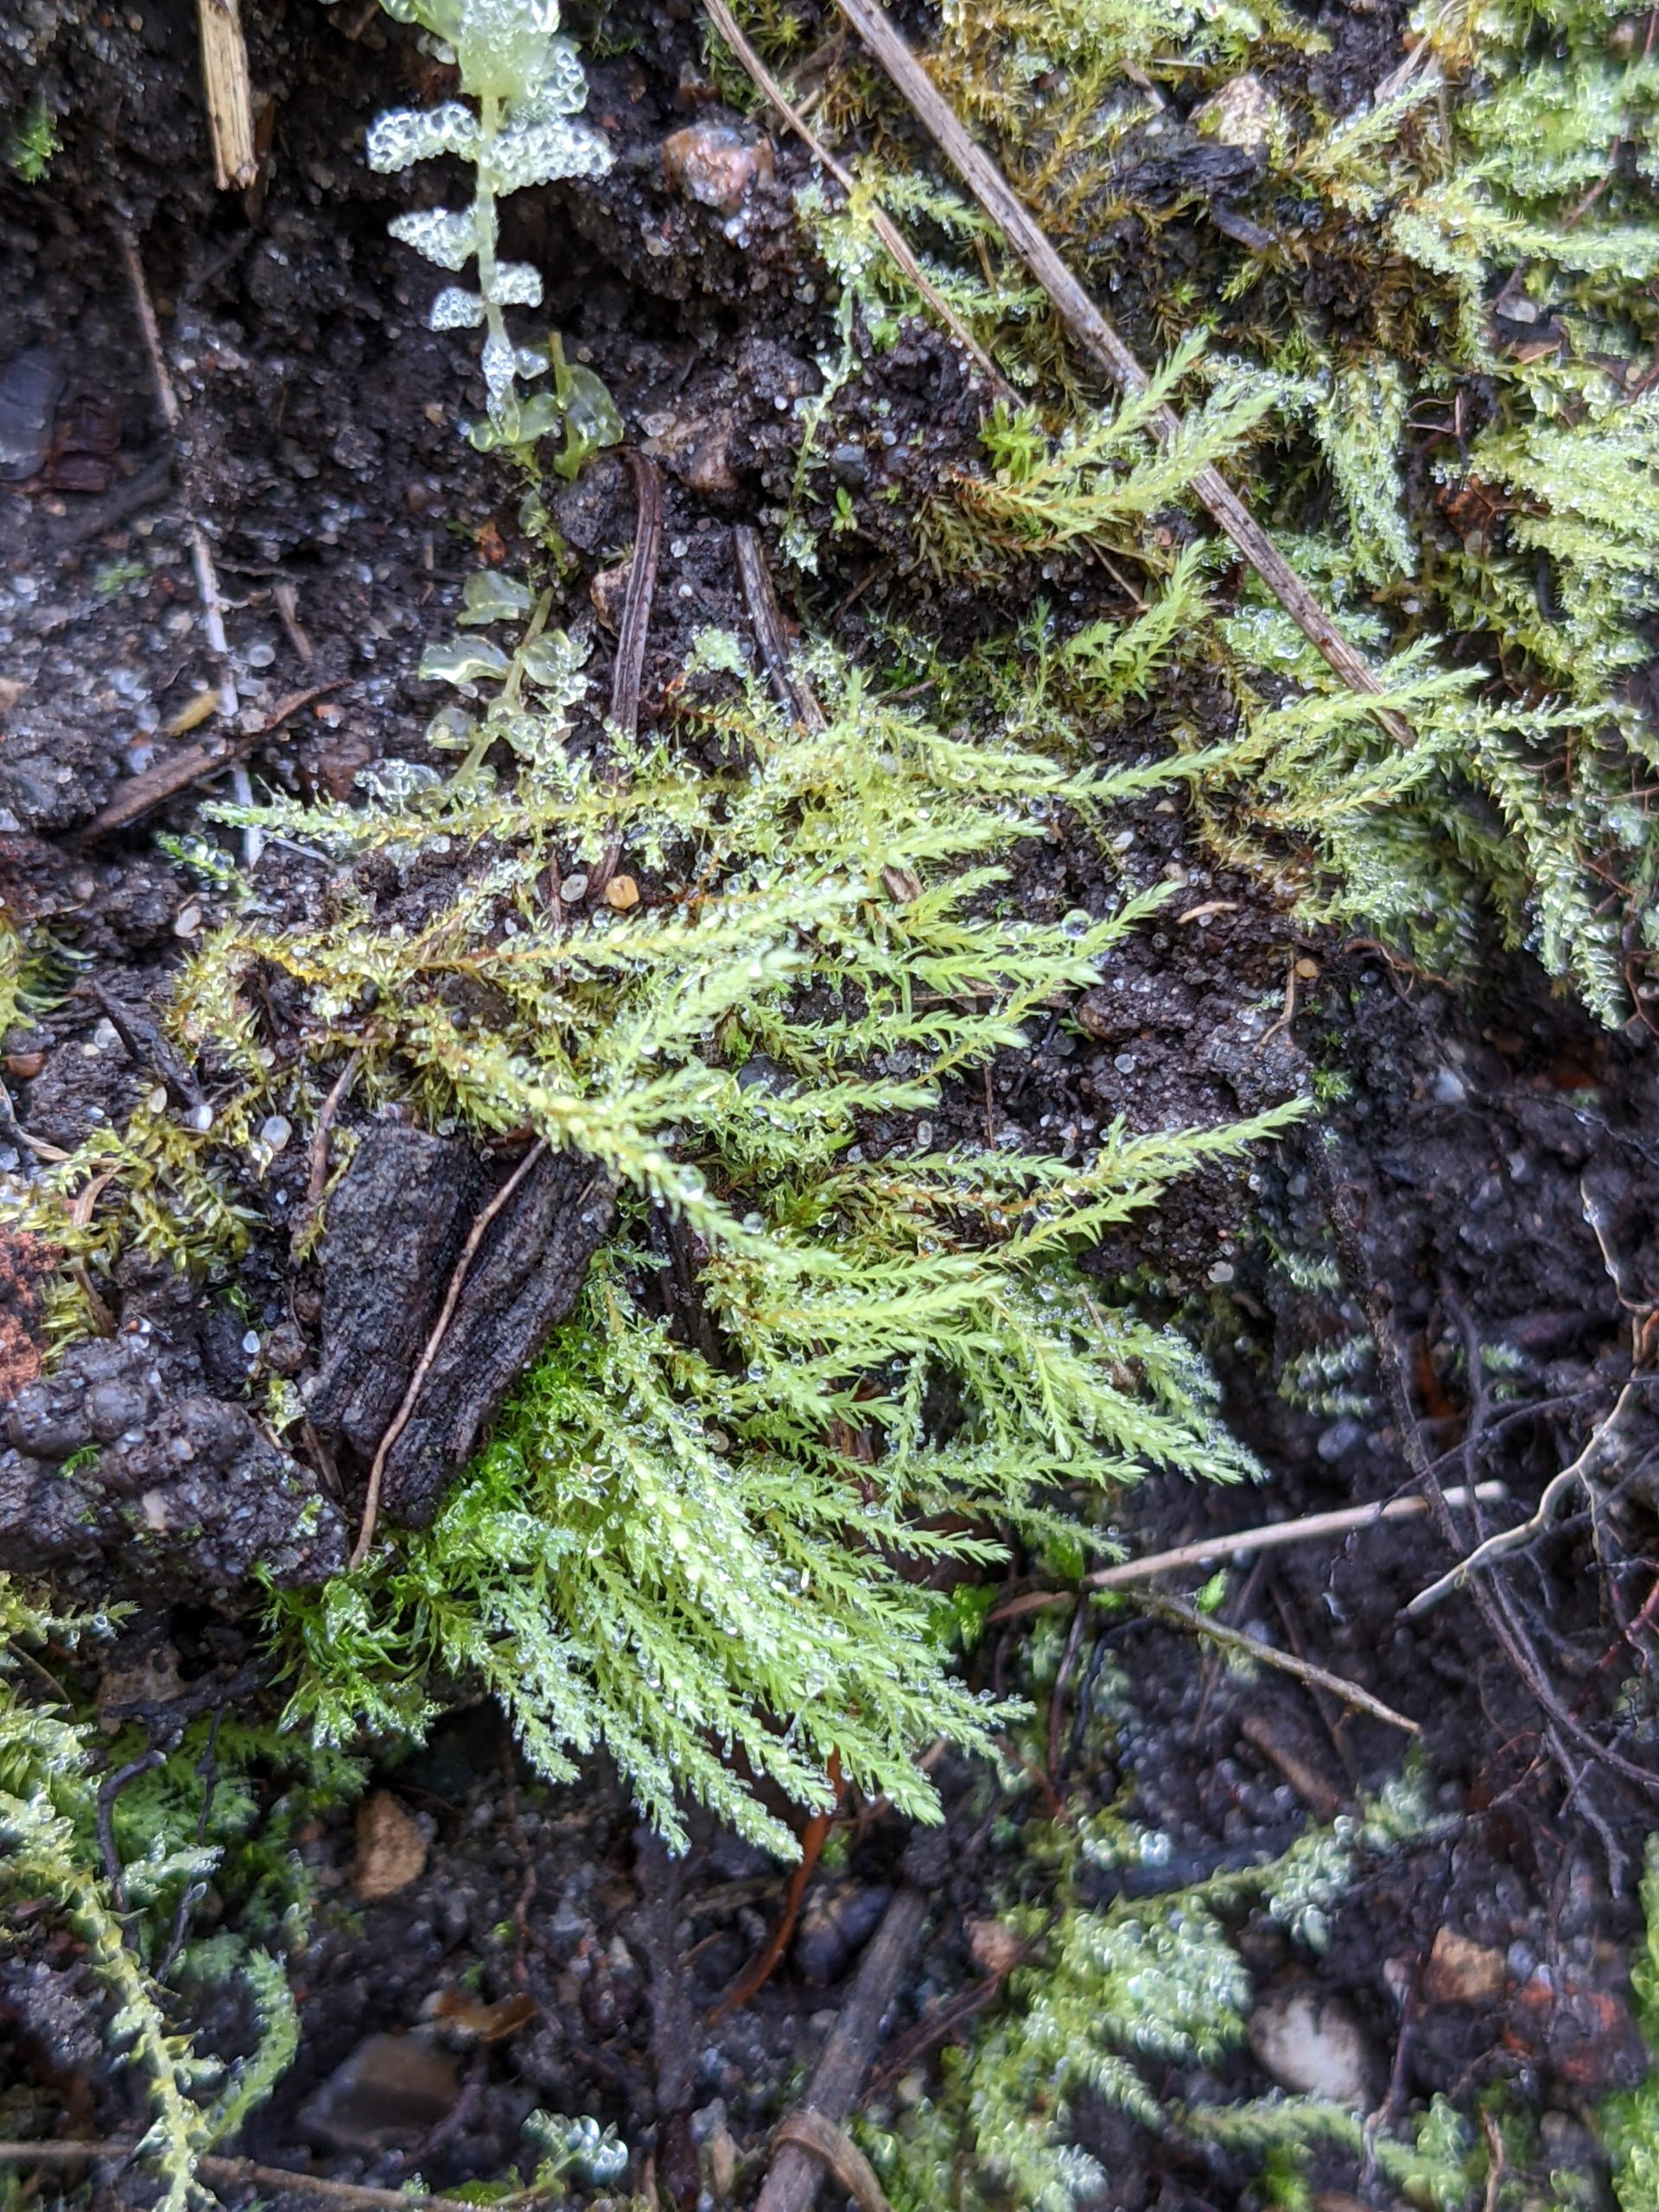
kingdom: Plantae
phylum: Bryophyta
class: Bryopsida
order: Bryales
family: Mniaceae
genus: Pohlia
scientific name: Pohlia wahlenbergii
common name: Lysegrøn voksmos
